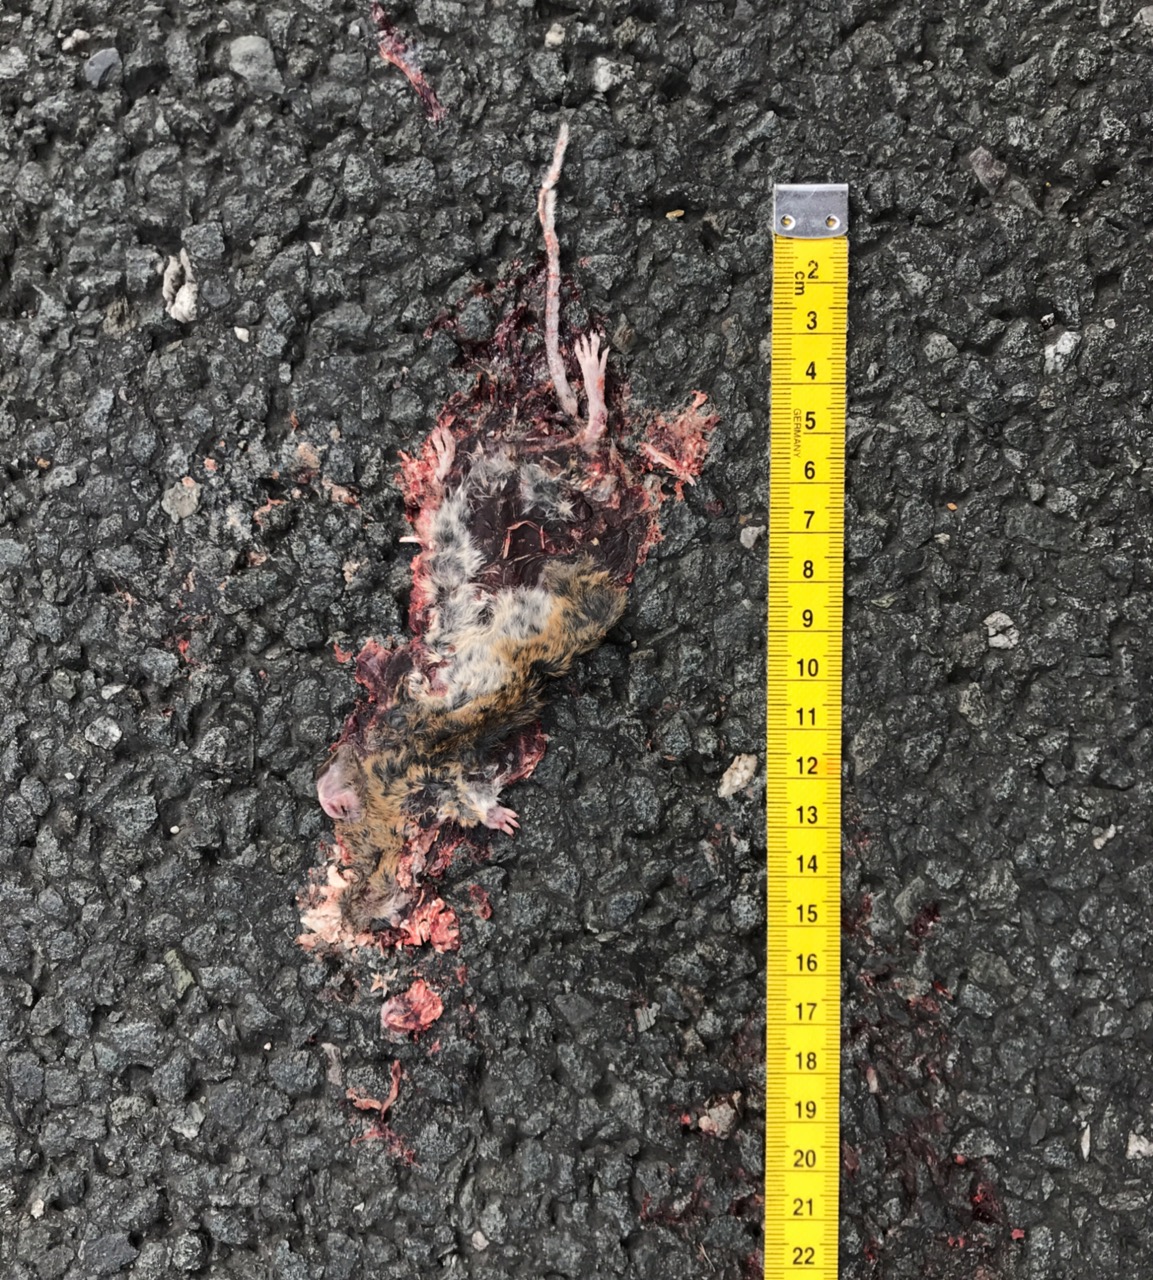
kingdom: Animalia
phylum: Chordata
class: Mammalia
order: Rodentia
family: Muridae
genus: Apodemus
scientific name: Apodemus
